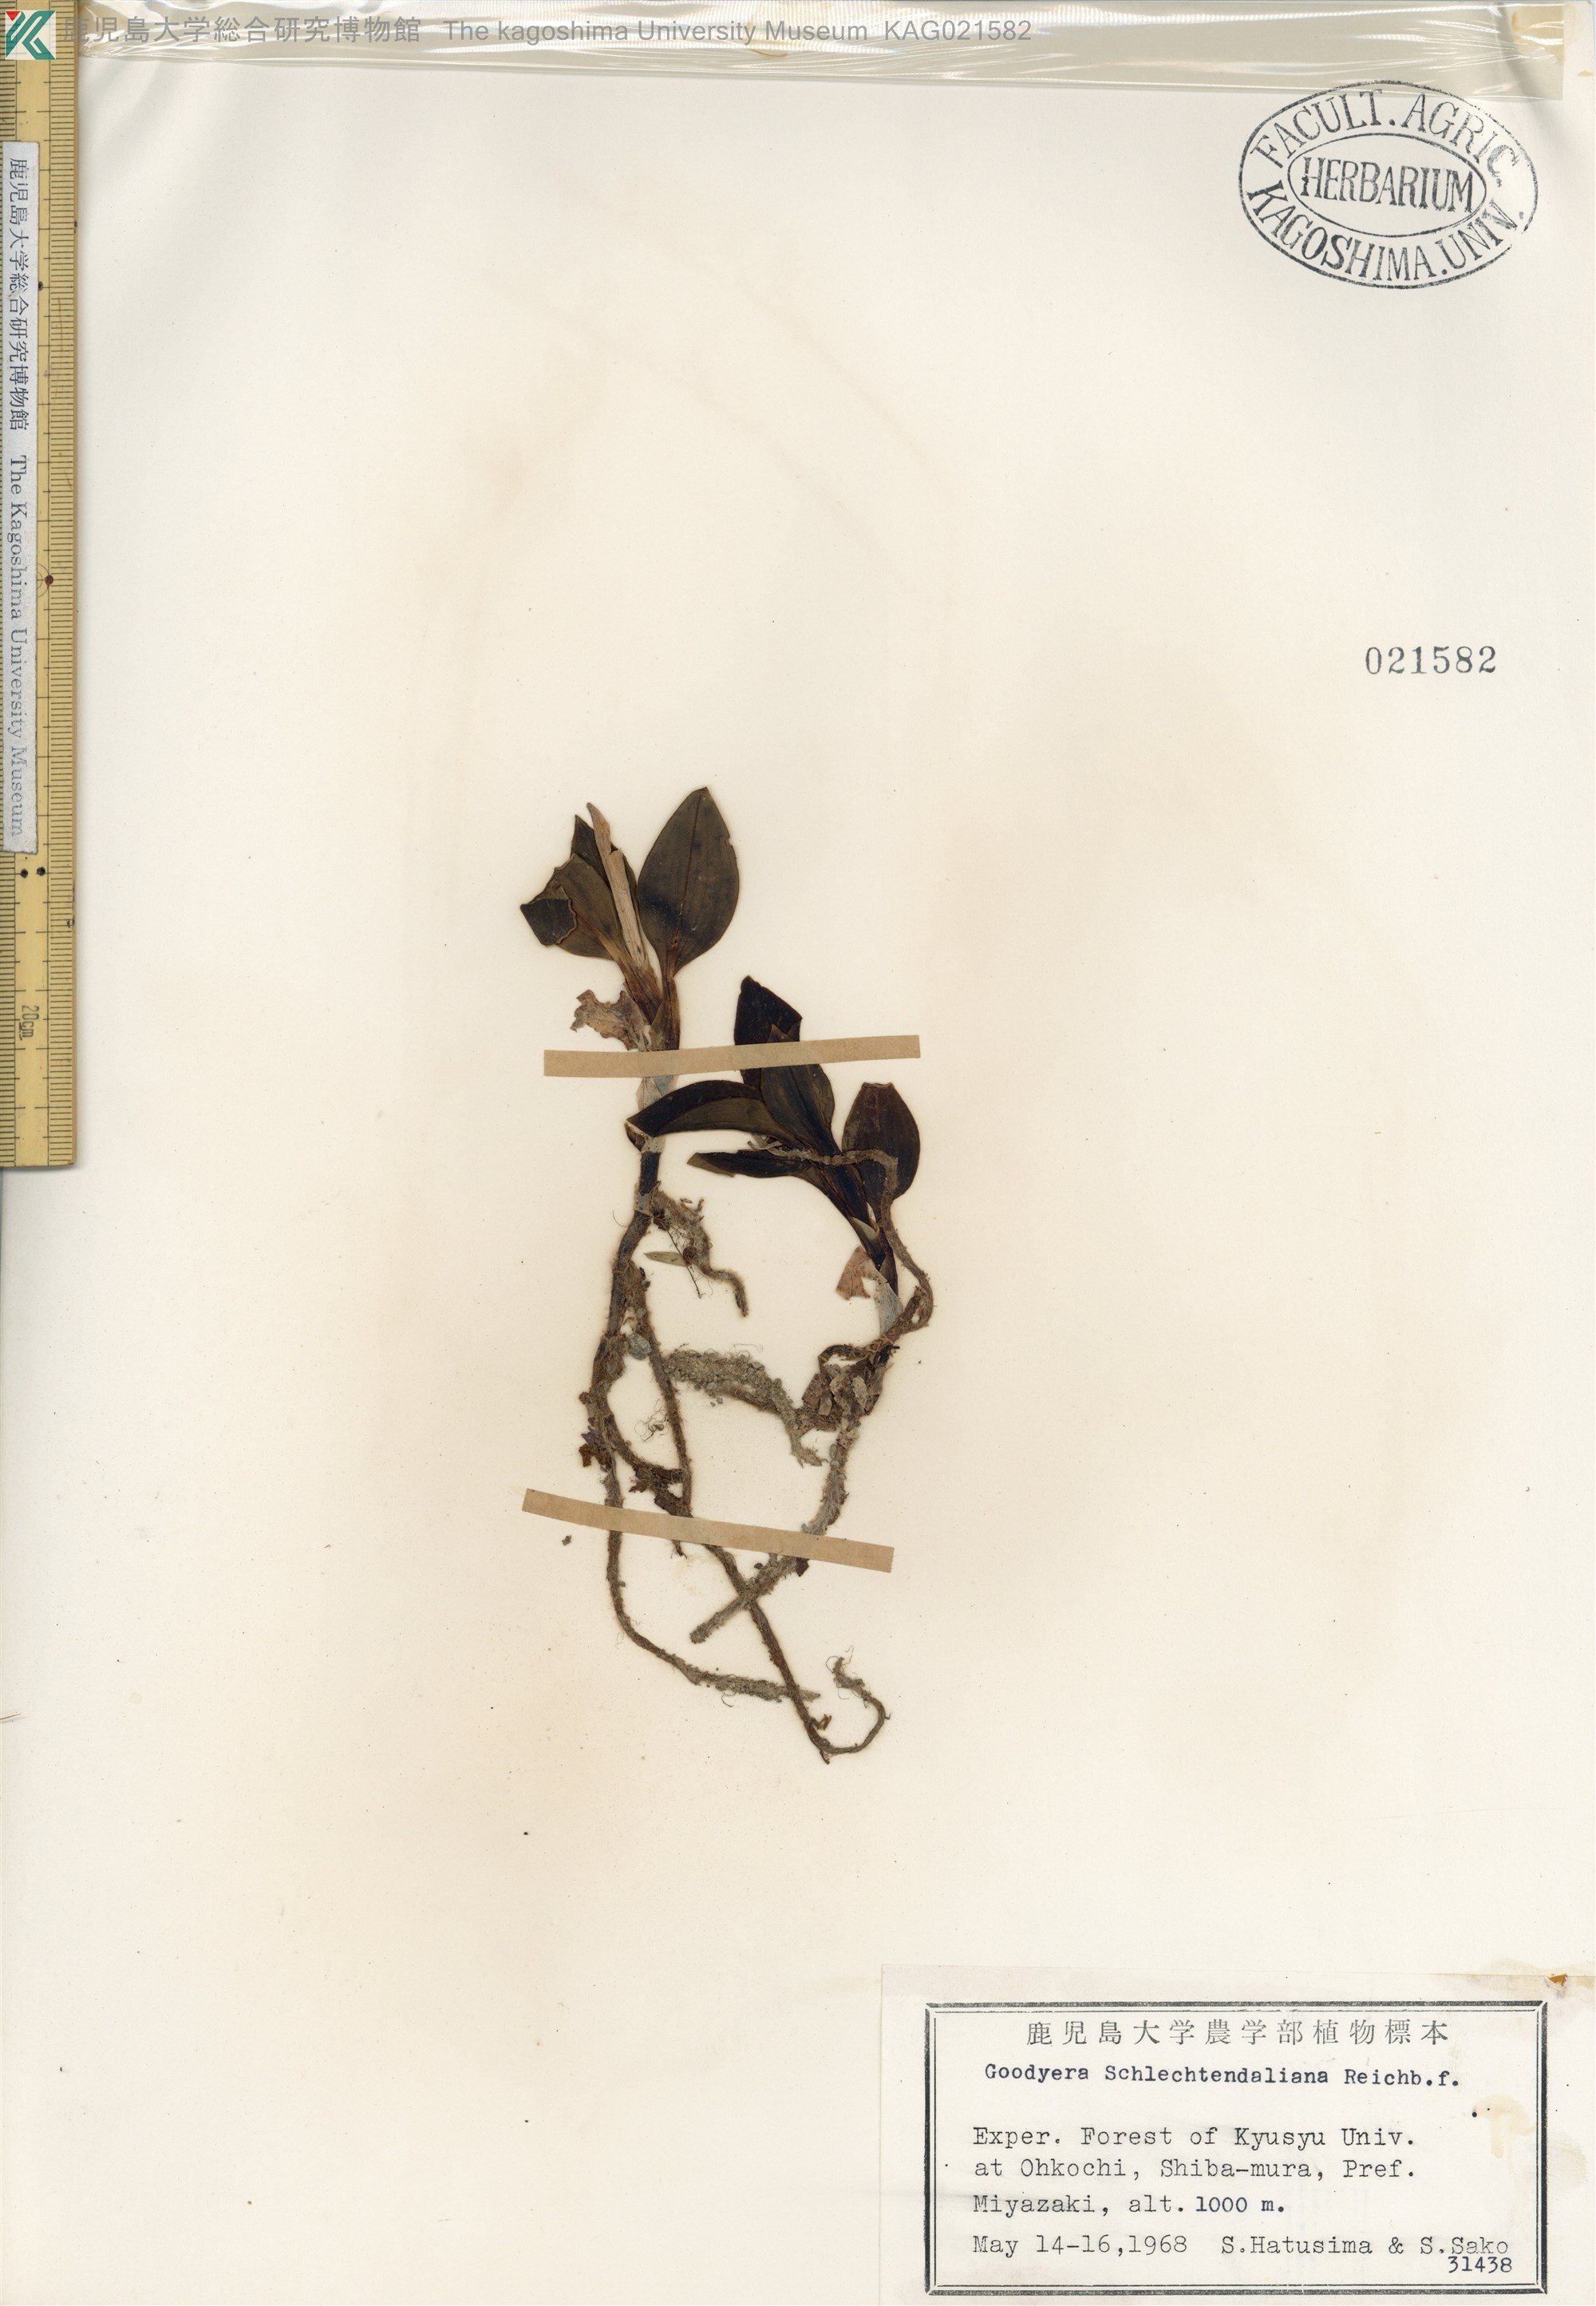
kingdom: Plantae
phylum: Tracheophyta
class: Liliopsida
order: Asparagales
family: Orchidaceae
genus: Goodyera
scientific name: Goodyera schlechtendaliana
